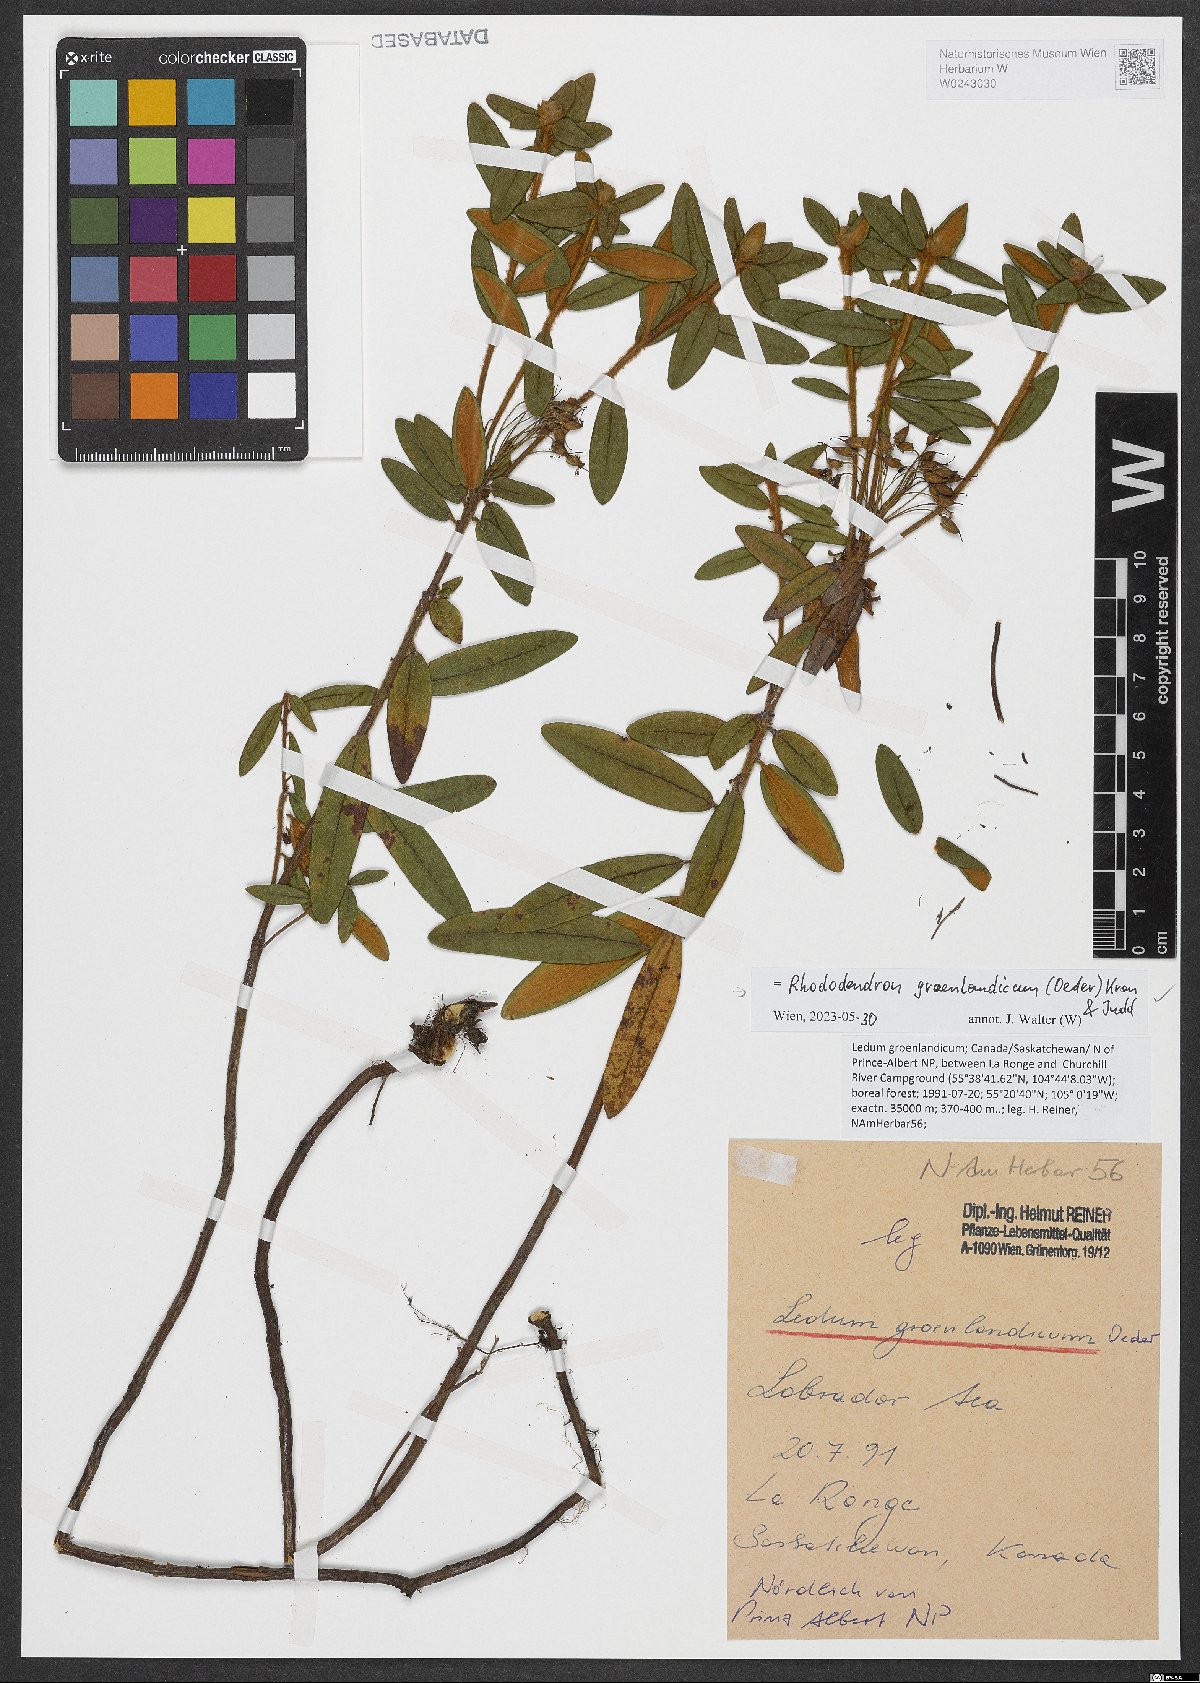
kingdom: Plantae
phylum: Tracheophyta
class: Magnoliopsida
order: Ericales
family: Ericaceae
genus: Rhododendron
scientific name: Rhododendron groenlandicum
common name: Bog labrador tea
